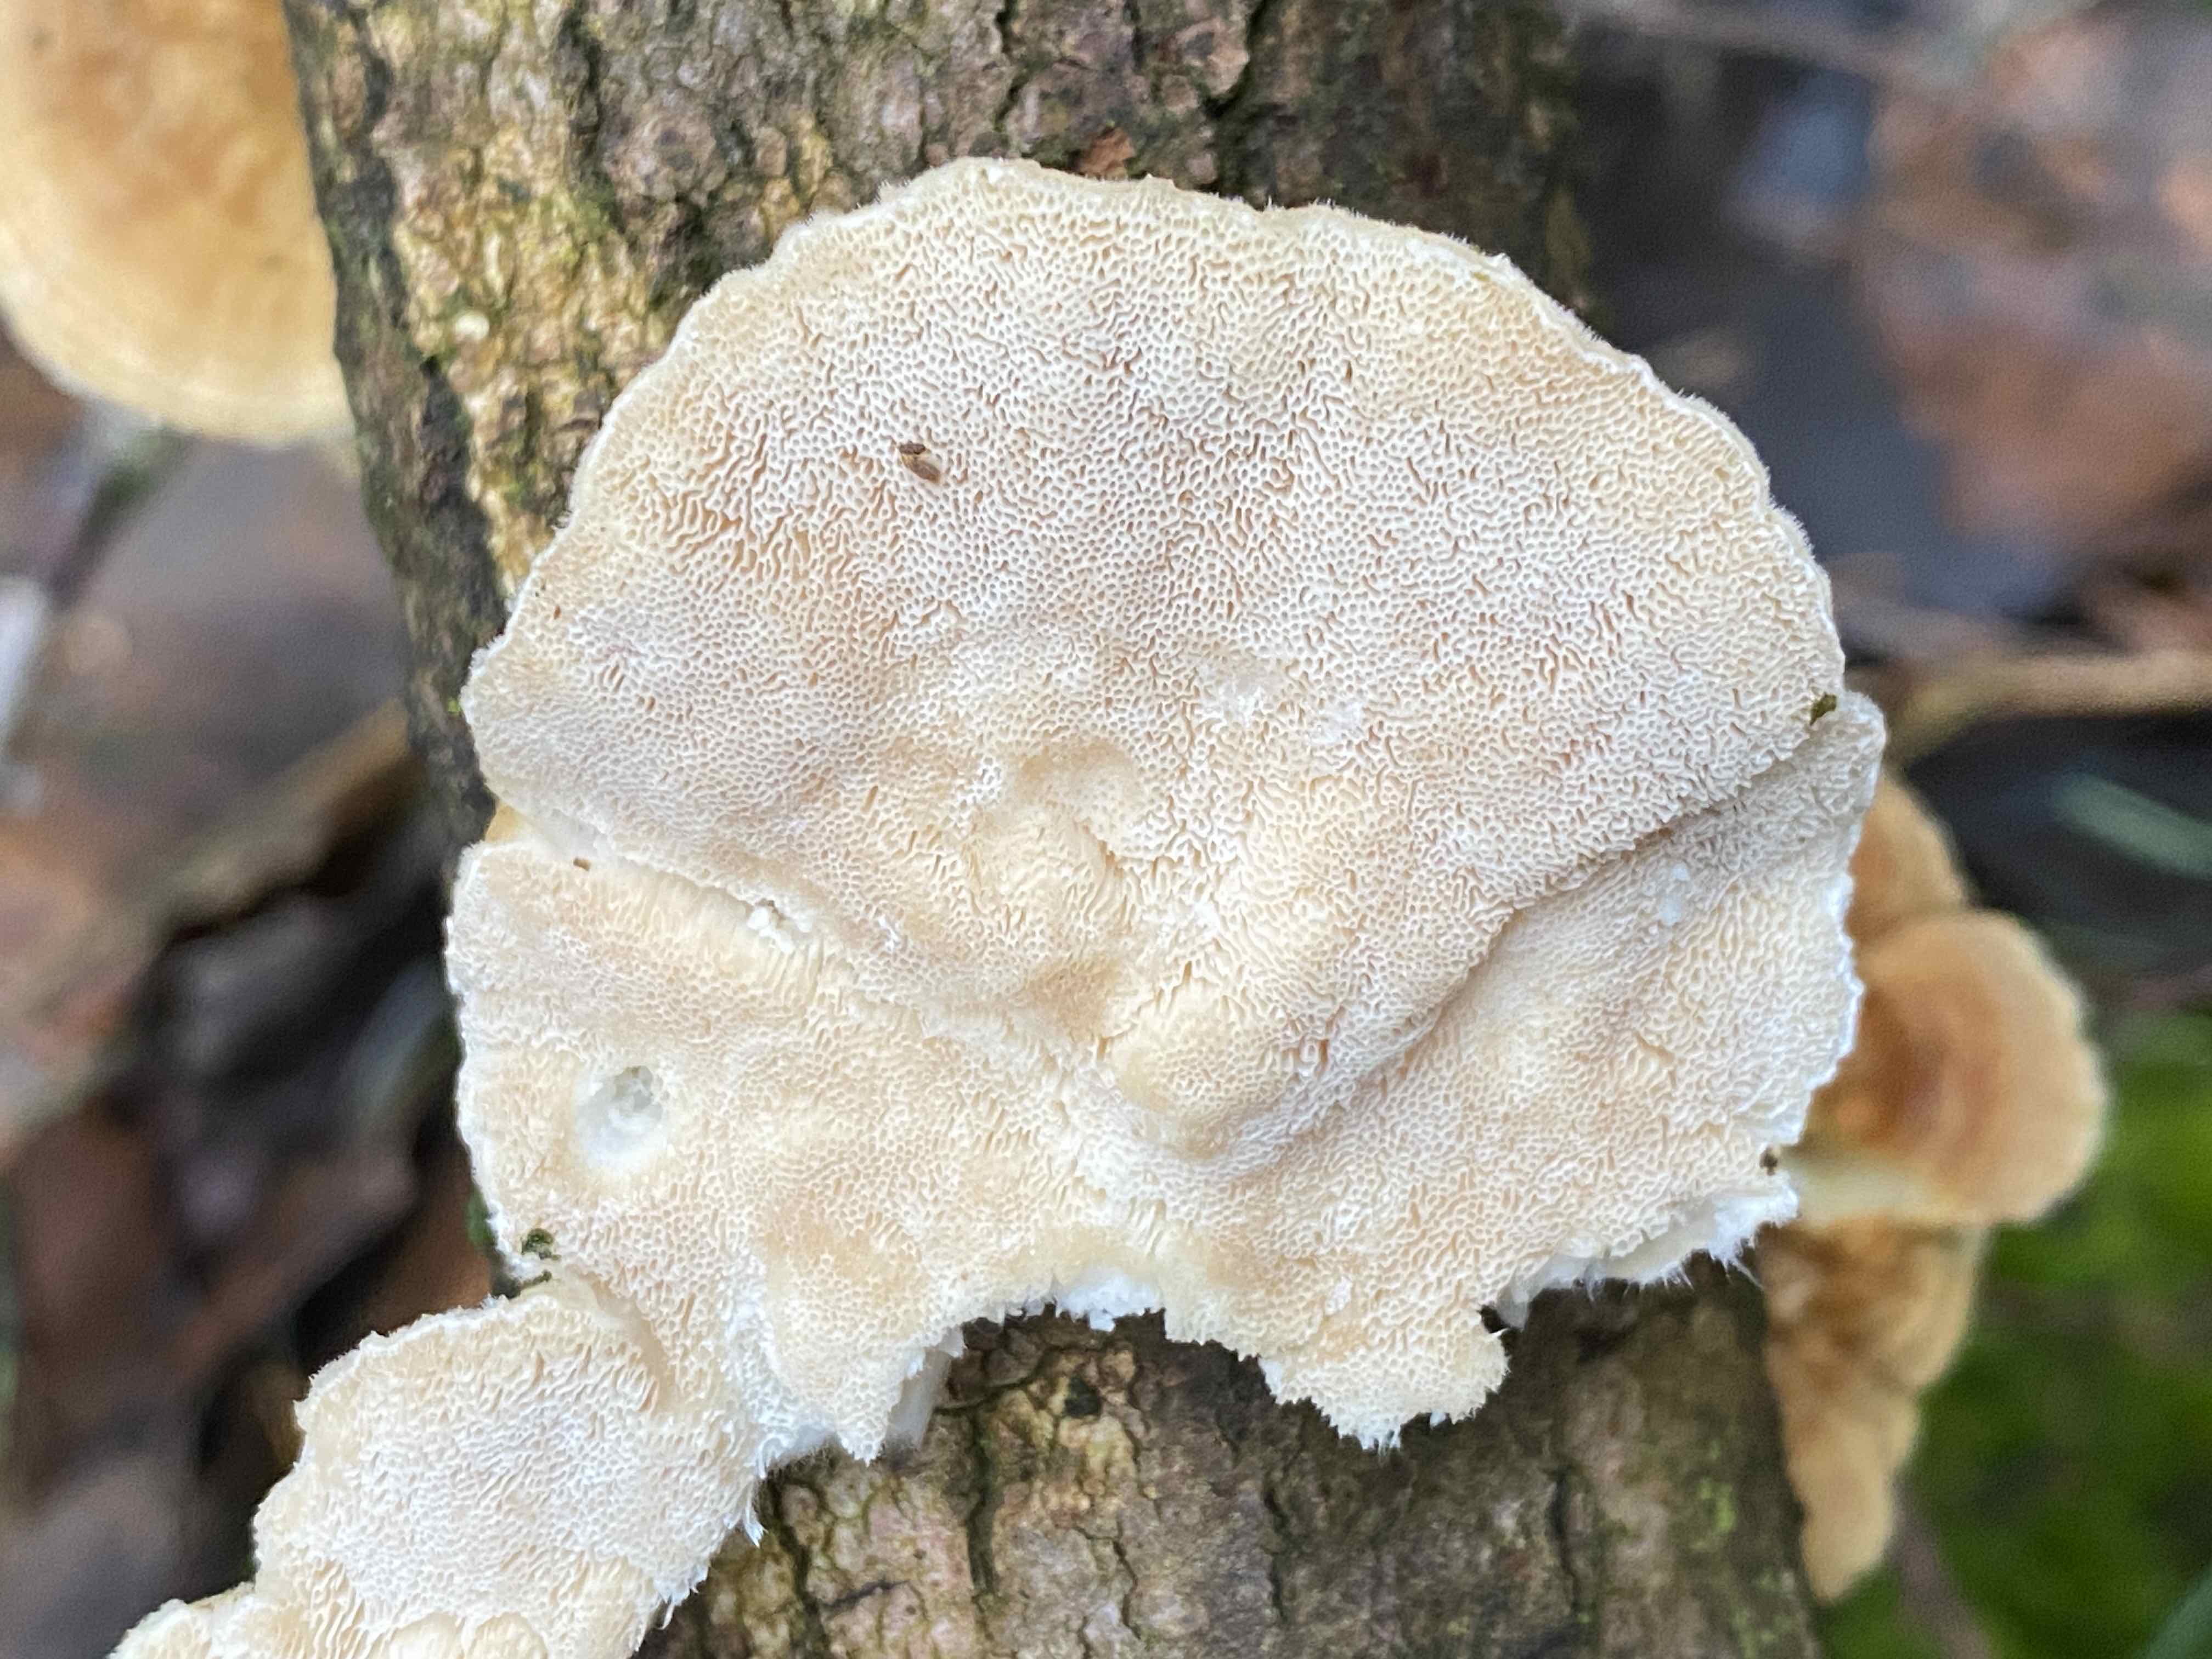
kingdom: Fungi
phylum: Basidiomycota
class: Agaricomycetes
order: Polyporales
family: Polyporaceae
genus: Trametes
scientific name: Trametes ochracea
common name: bæltet læderporesvamp
